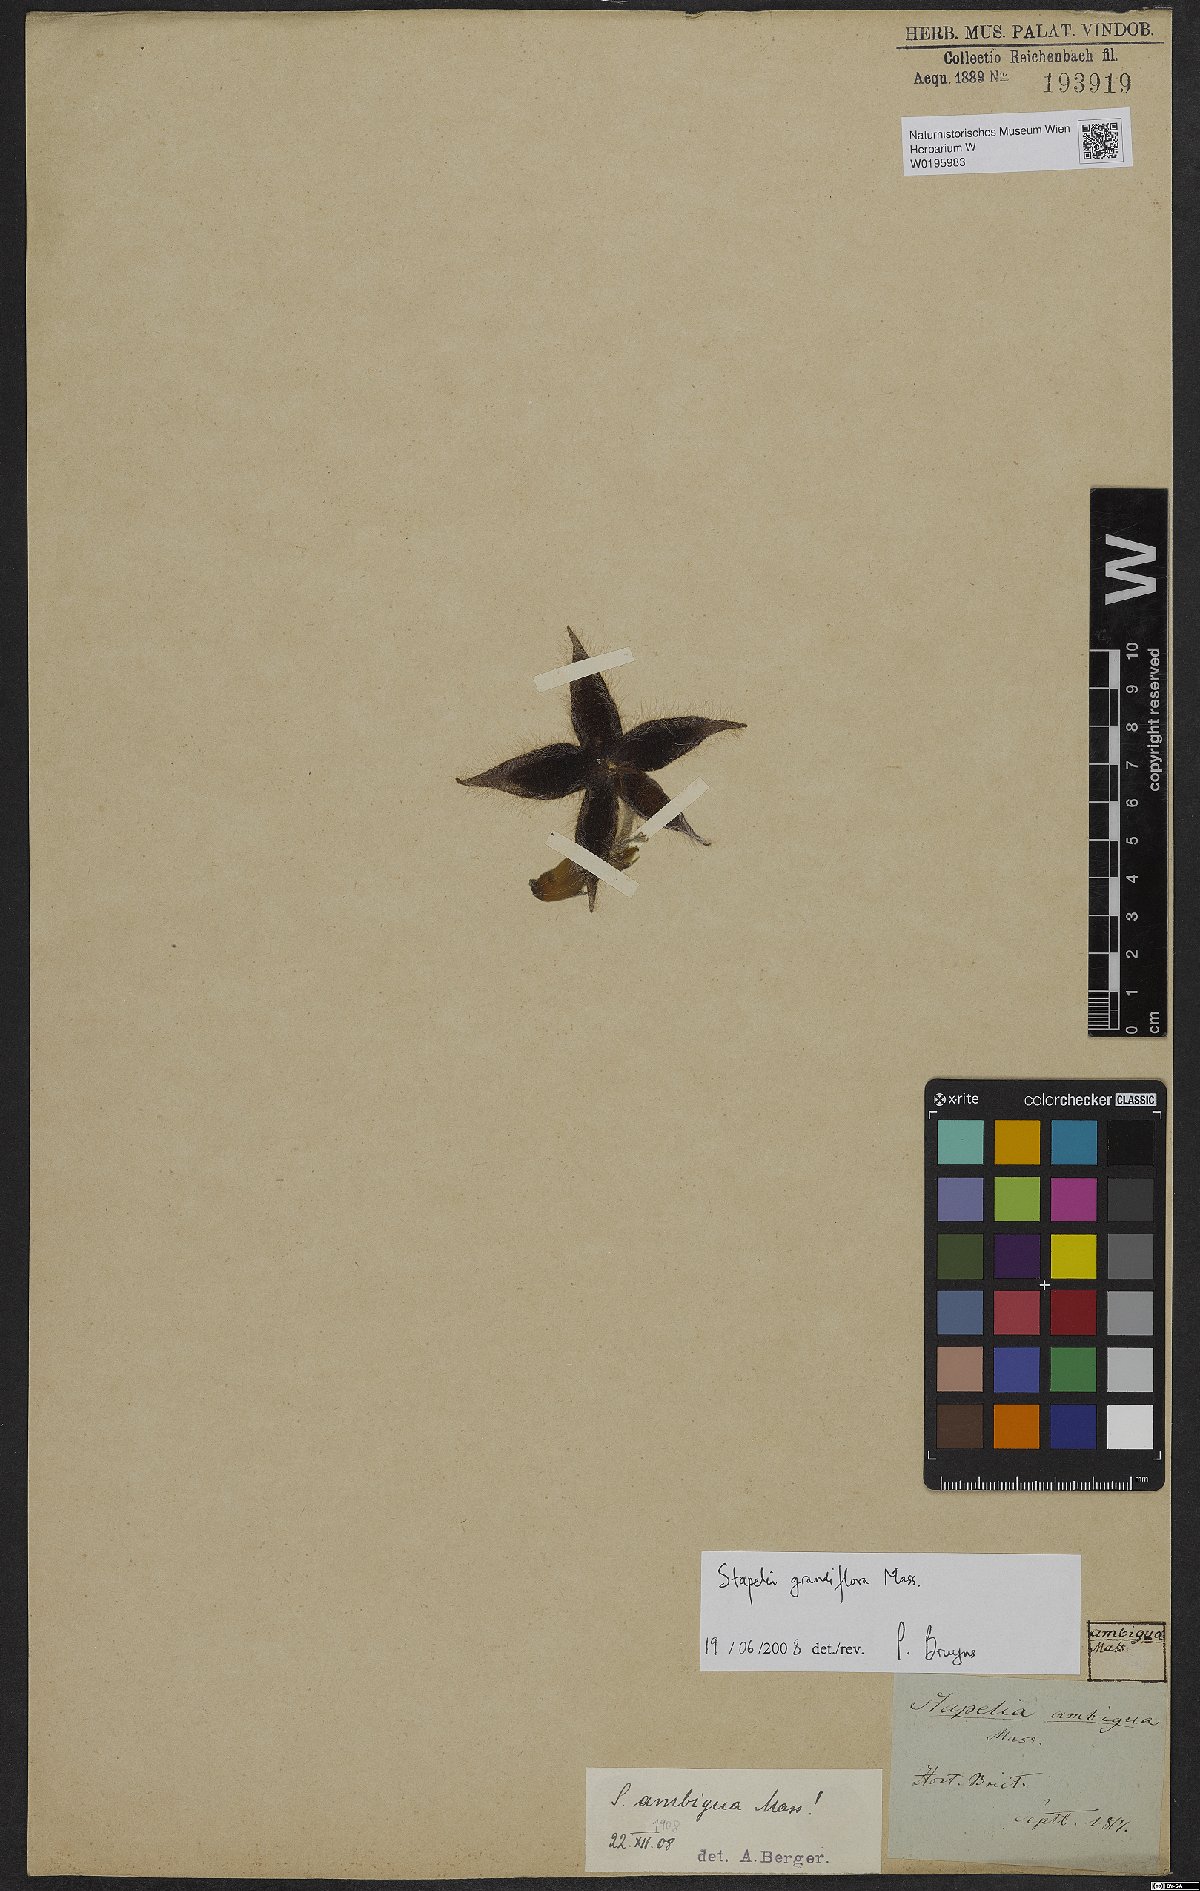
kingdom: Plantae
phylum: Tracheophyta
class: Magnoliopsida
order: Gentianales
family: Apocynaceae
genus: Ceropegia
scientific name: Ceropegia grandiflora
